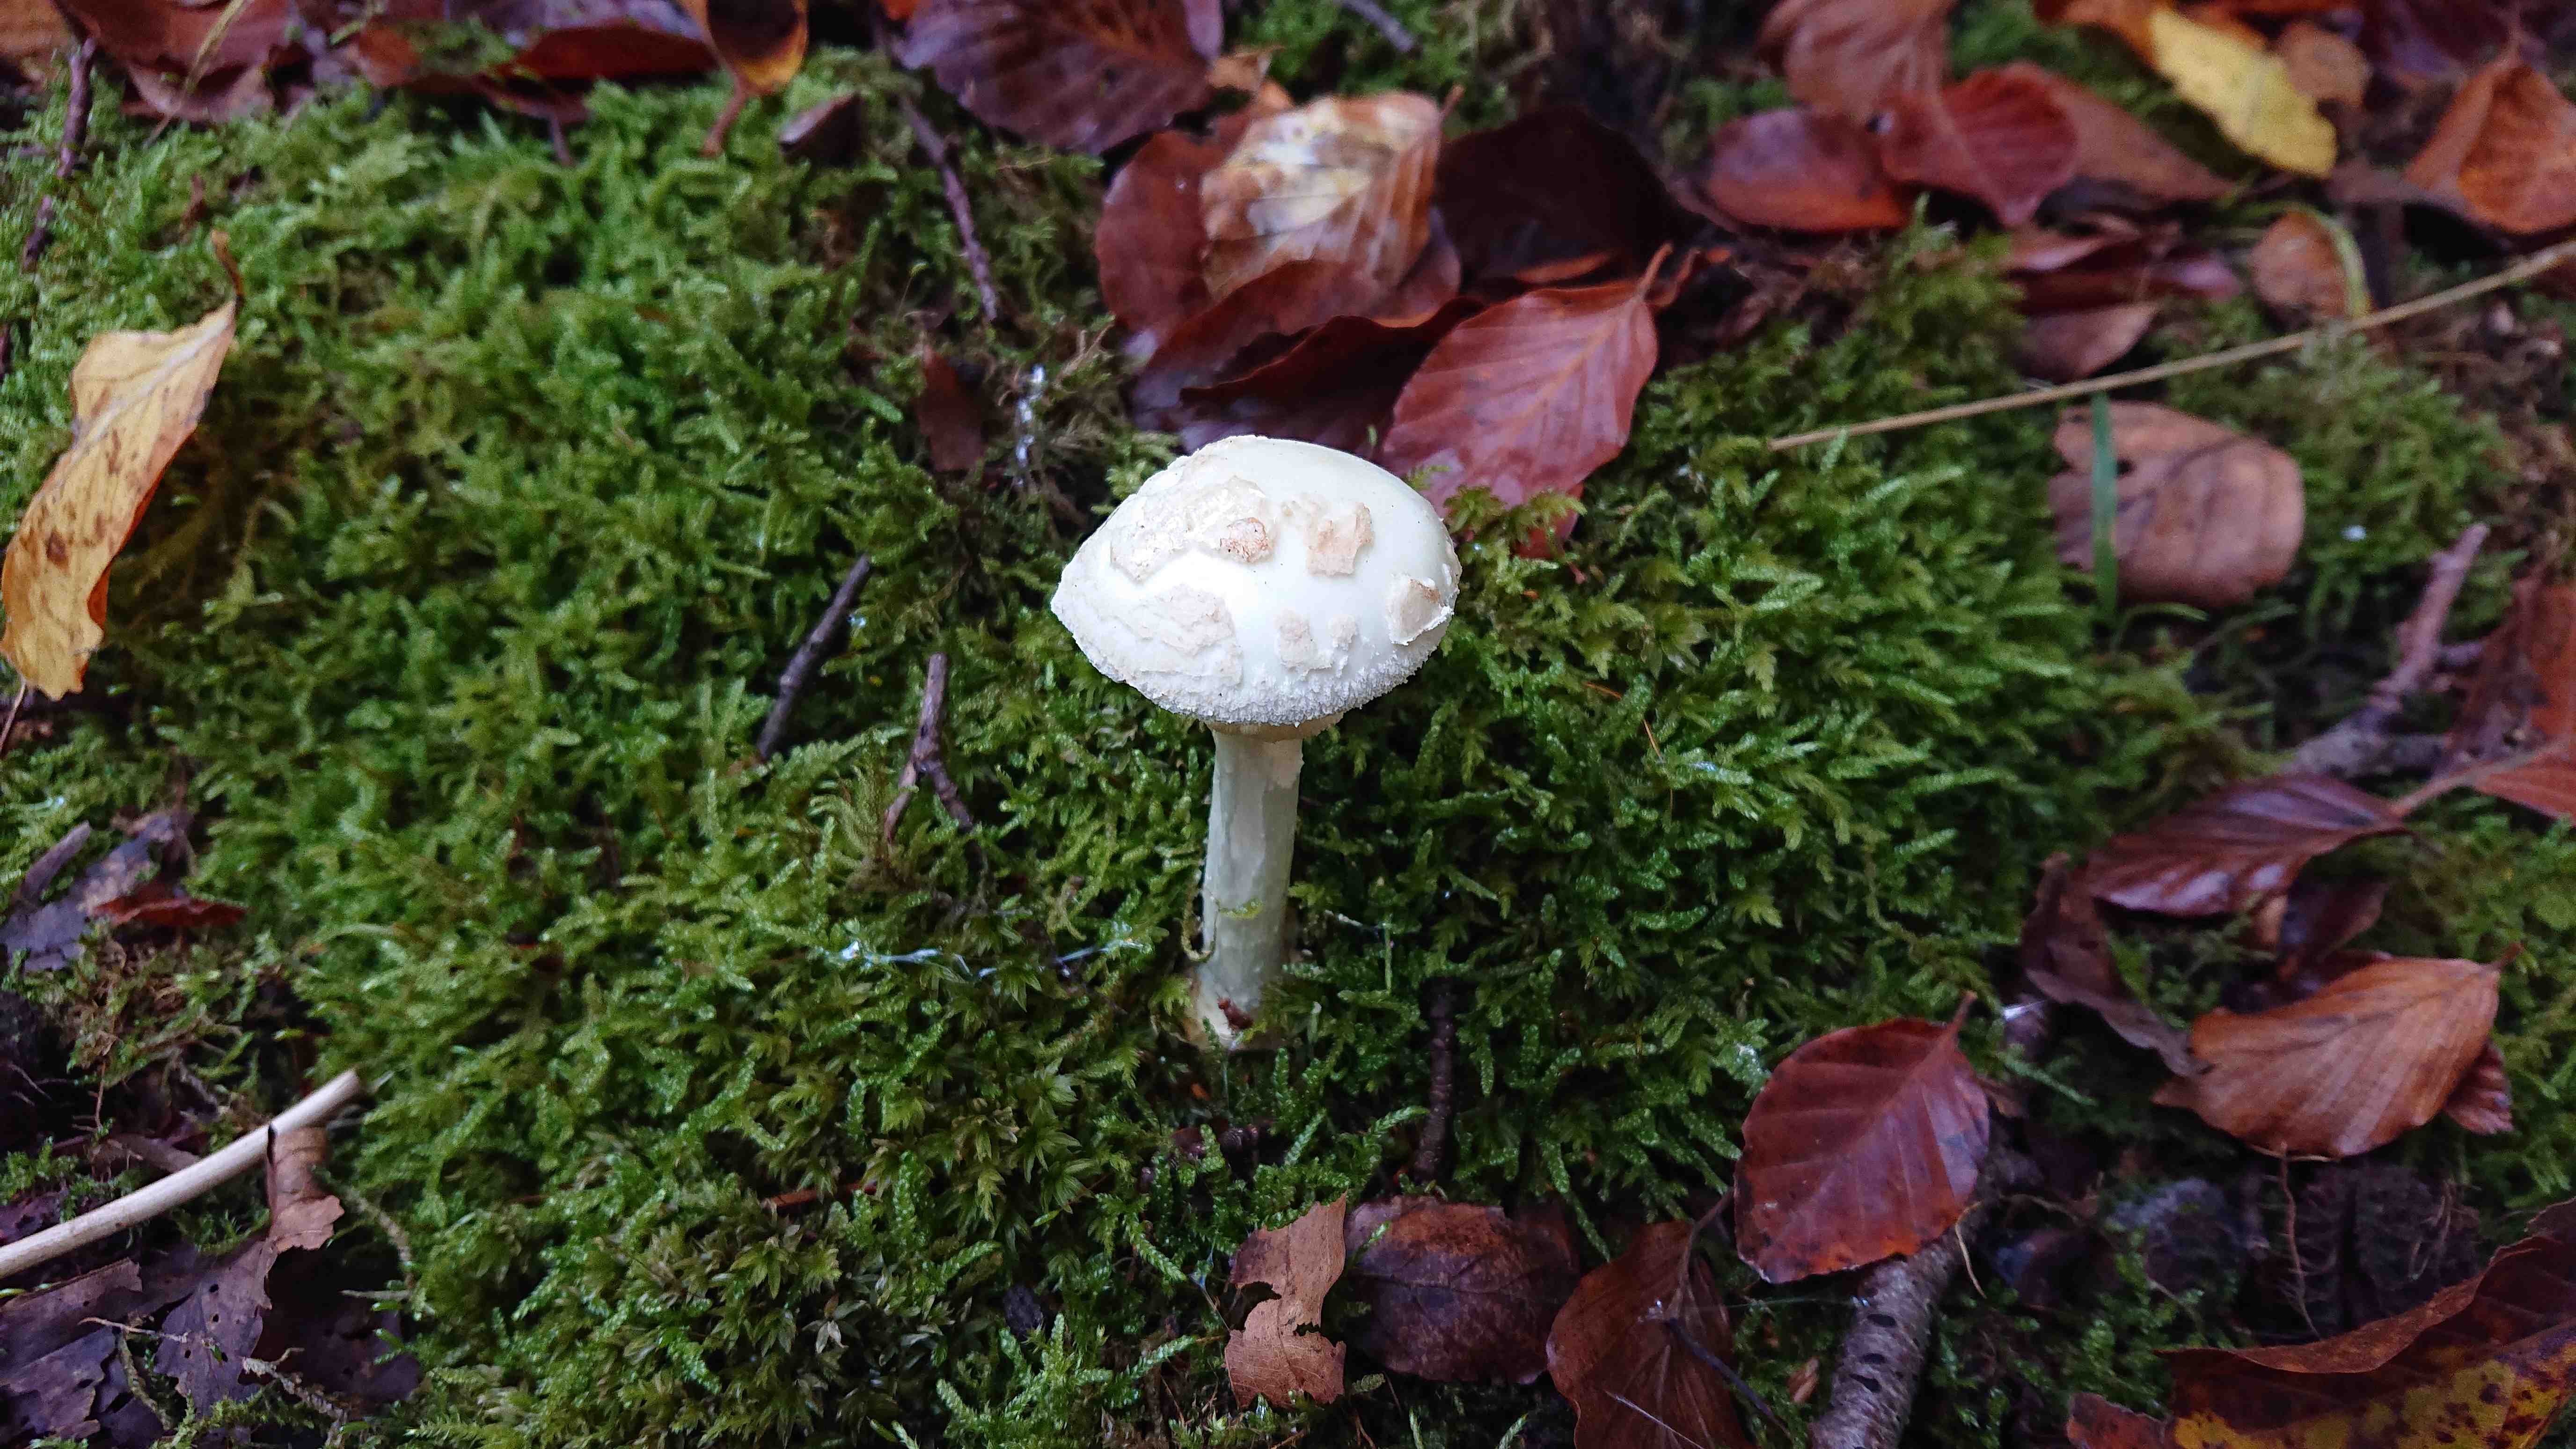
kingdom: Fungi
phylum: Basidiomycota
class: Agaricomycetes
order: Agaricales
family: Amanitaceae
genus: Amanita
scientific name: Amanita citrina
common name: kugleknoldet fluesvamp
